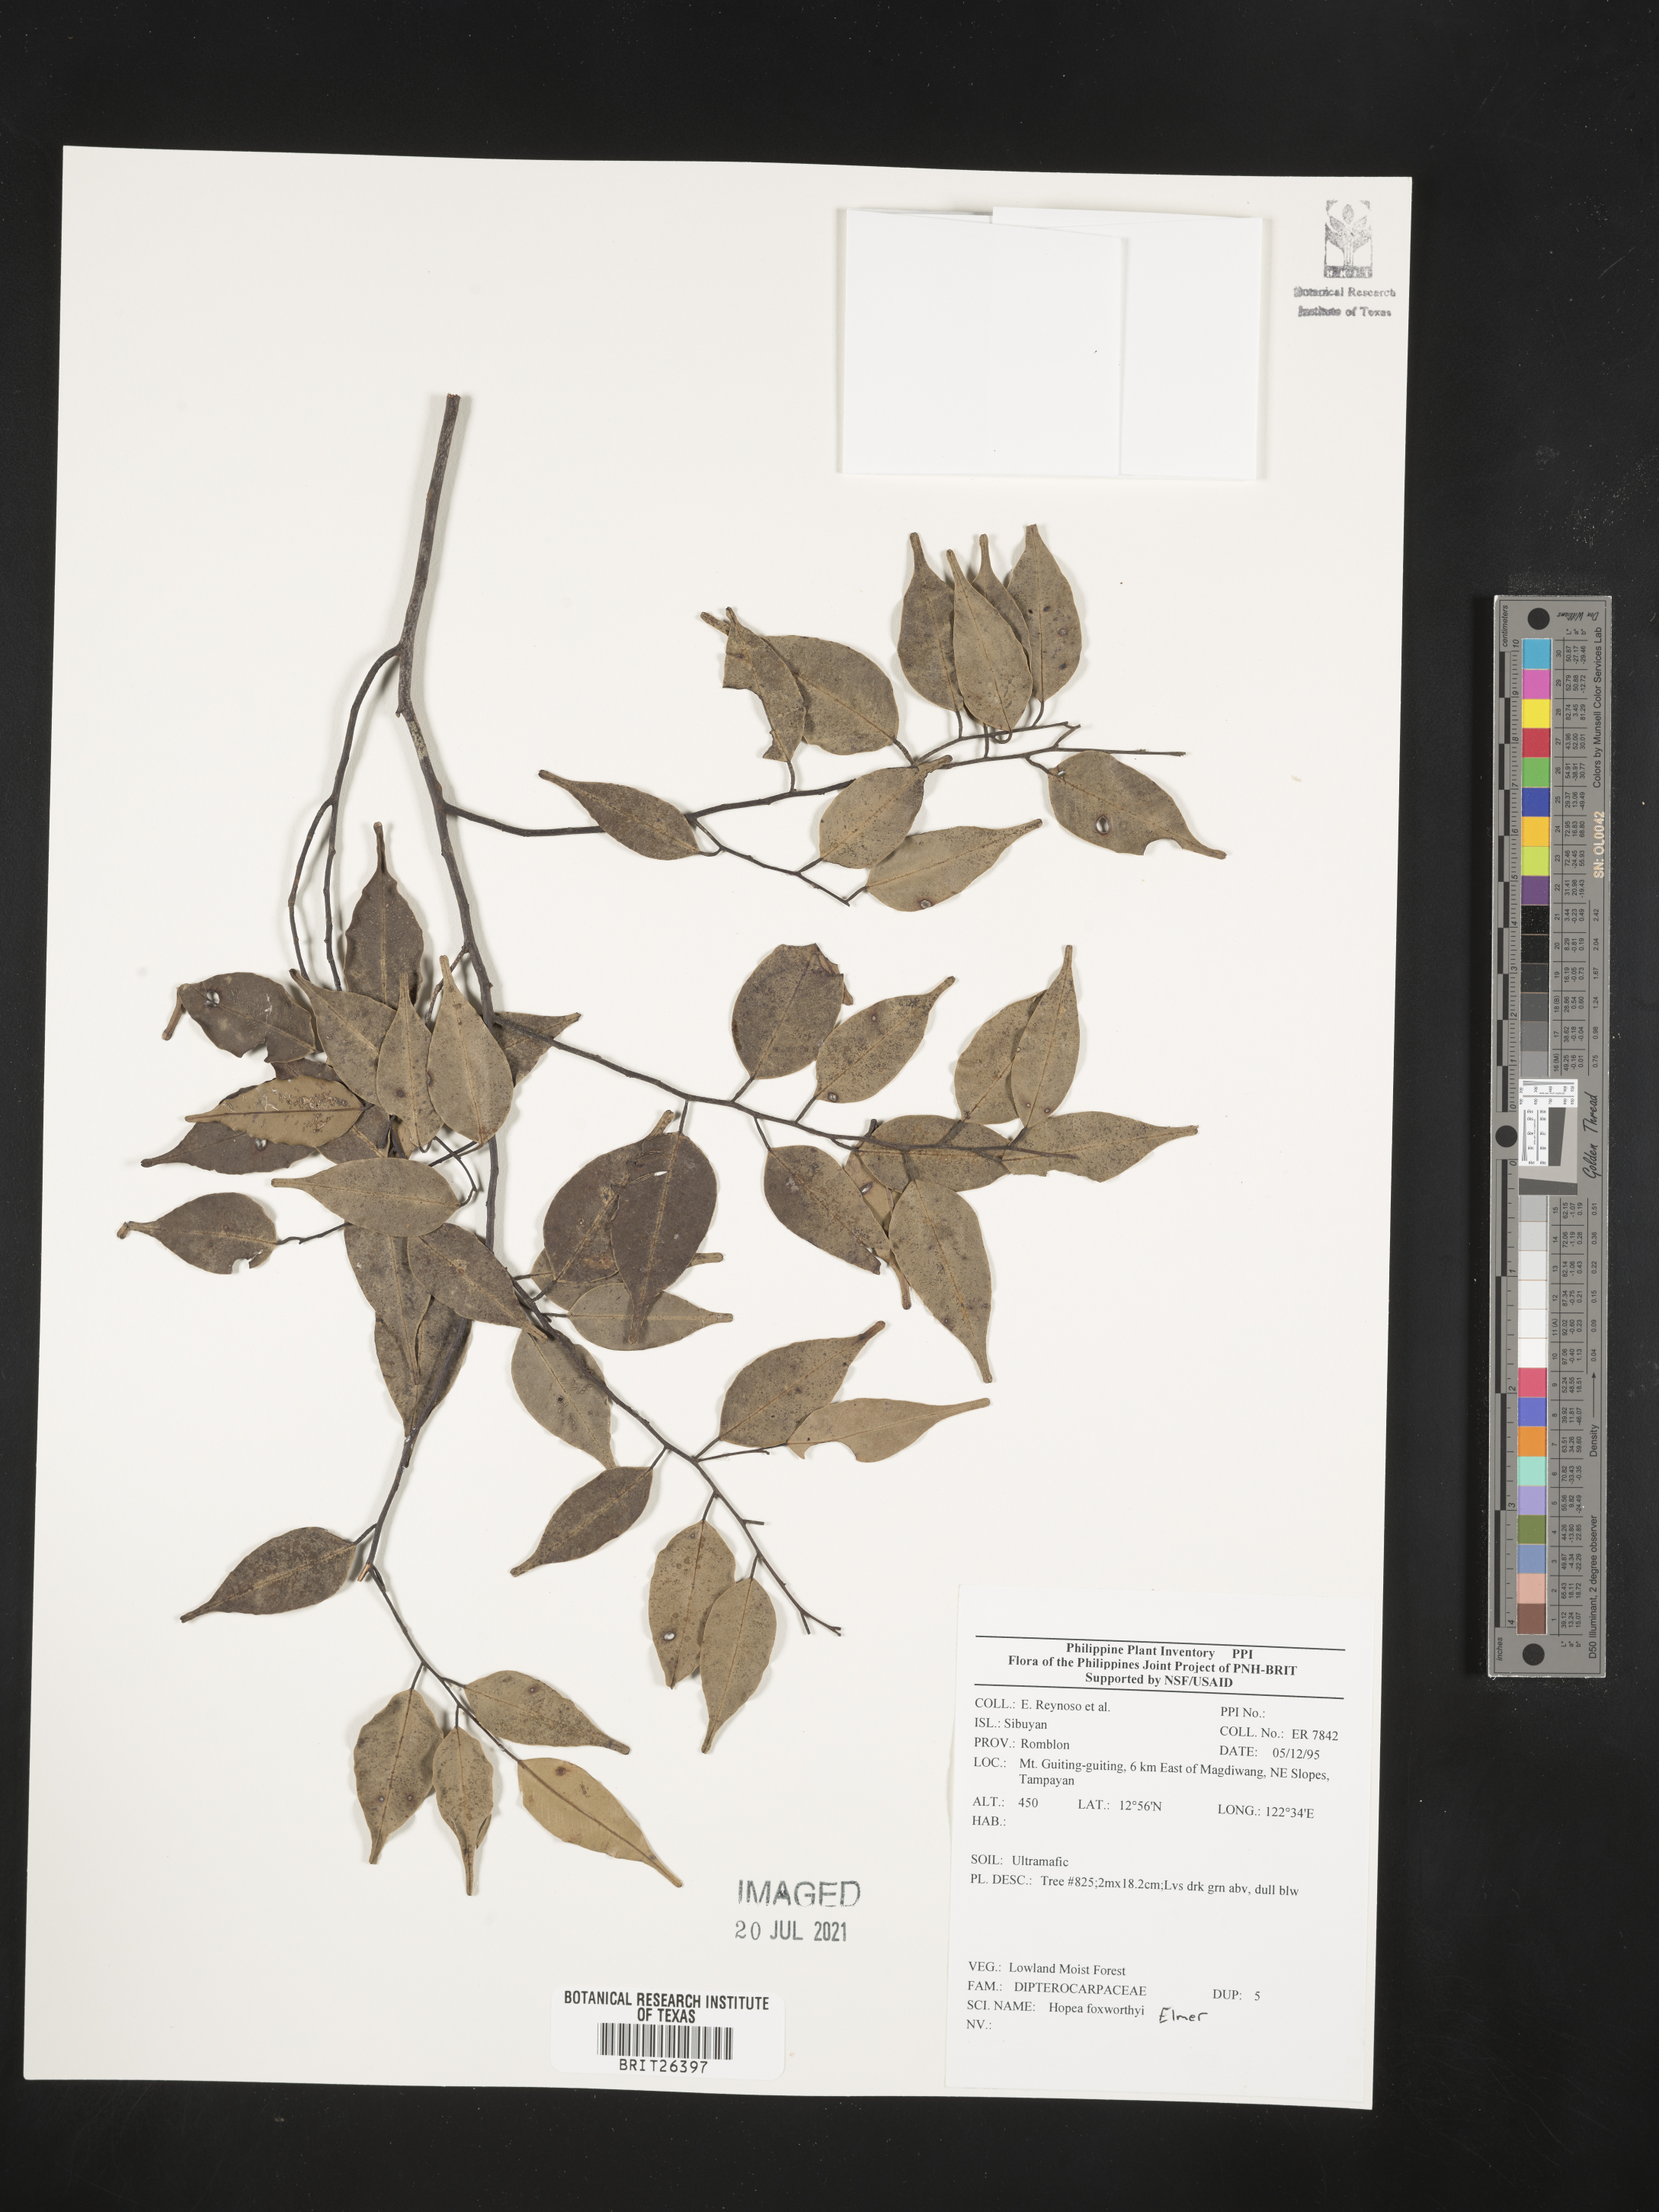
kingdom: Plantae
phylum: Tracheophyta
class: Magnoliopsida
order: Malvales
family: Dipterocarpaceae
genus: Hopea
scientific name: Hopea foxworthyi
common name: Dalingdingan
